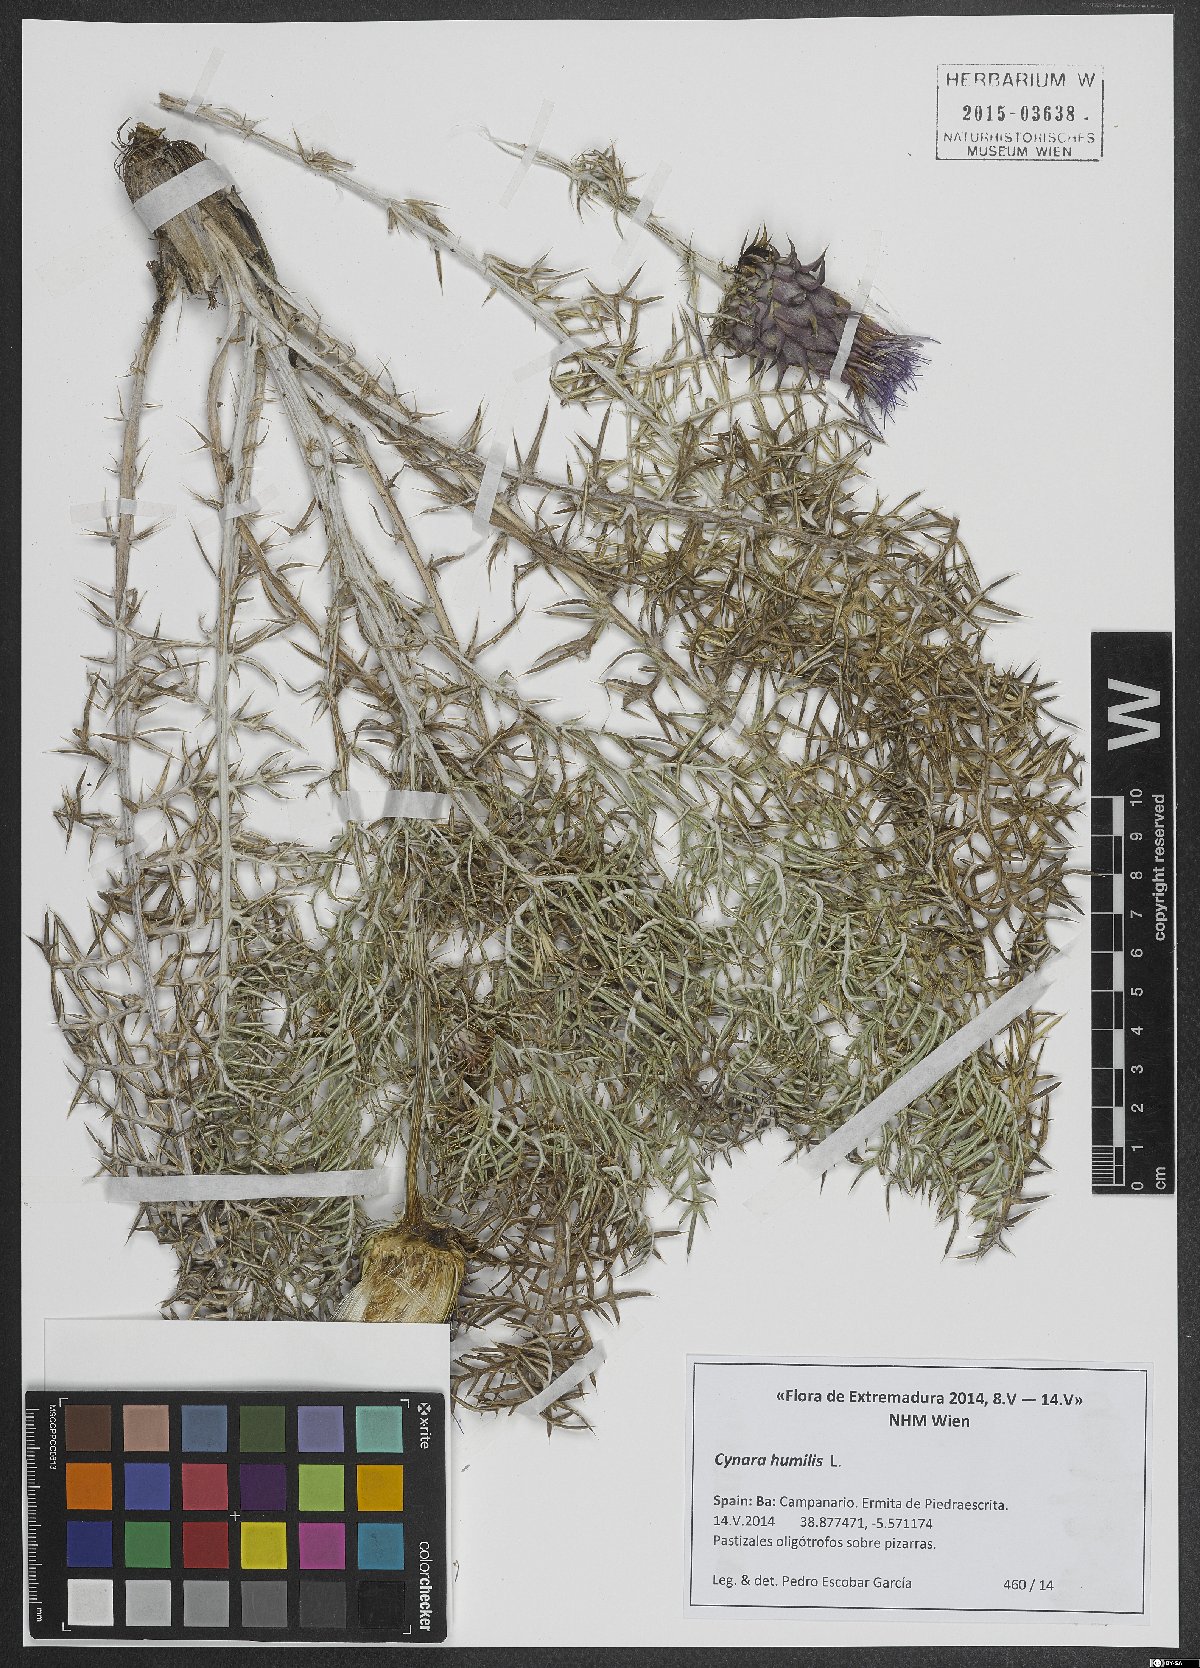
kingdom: Plantae
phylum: Tracheophyta
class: Magnoliopsida
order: Asterales
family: Asteraceae
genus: Cynara
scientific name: Cynara humilis
